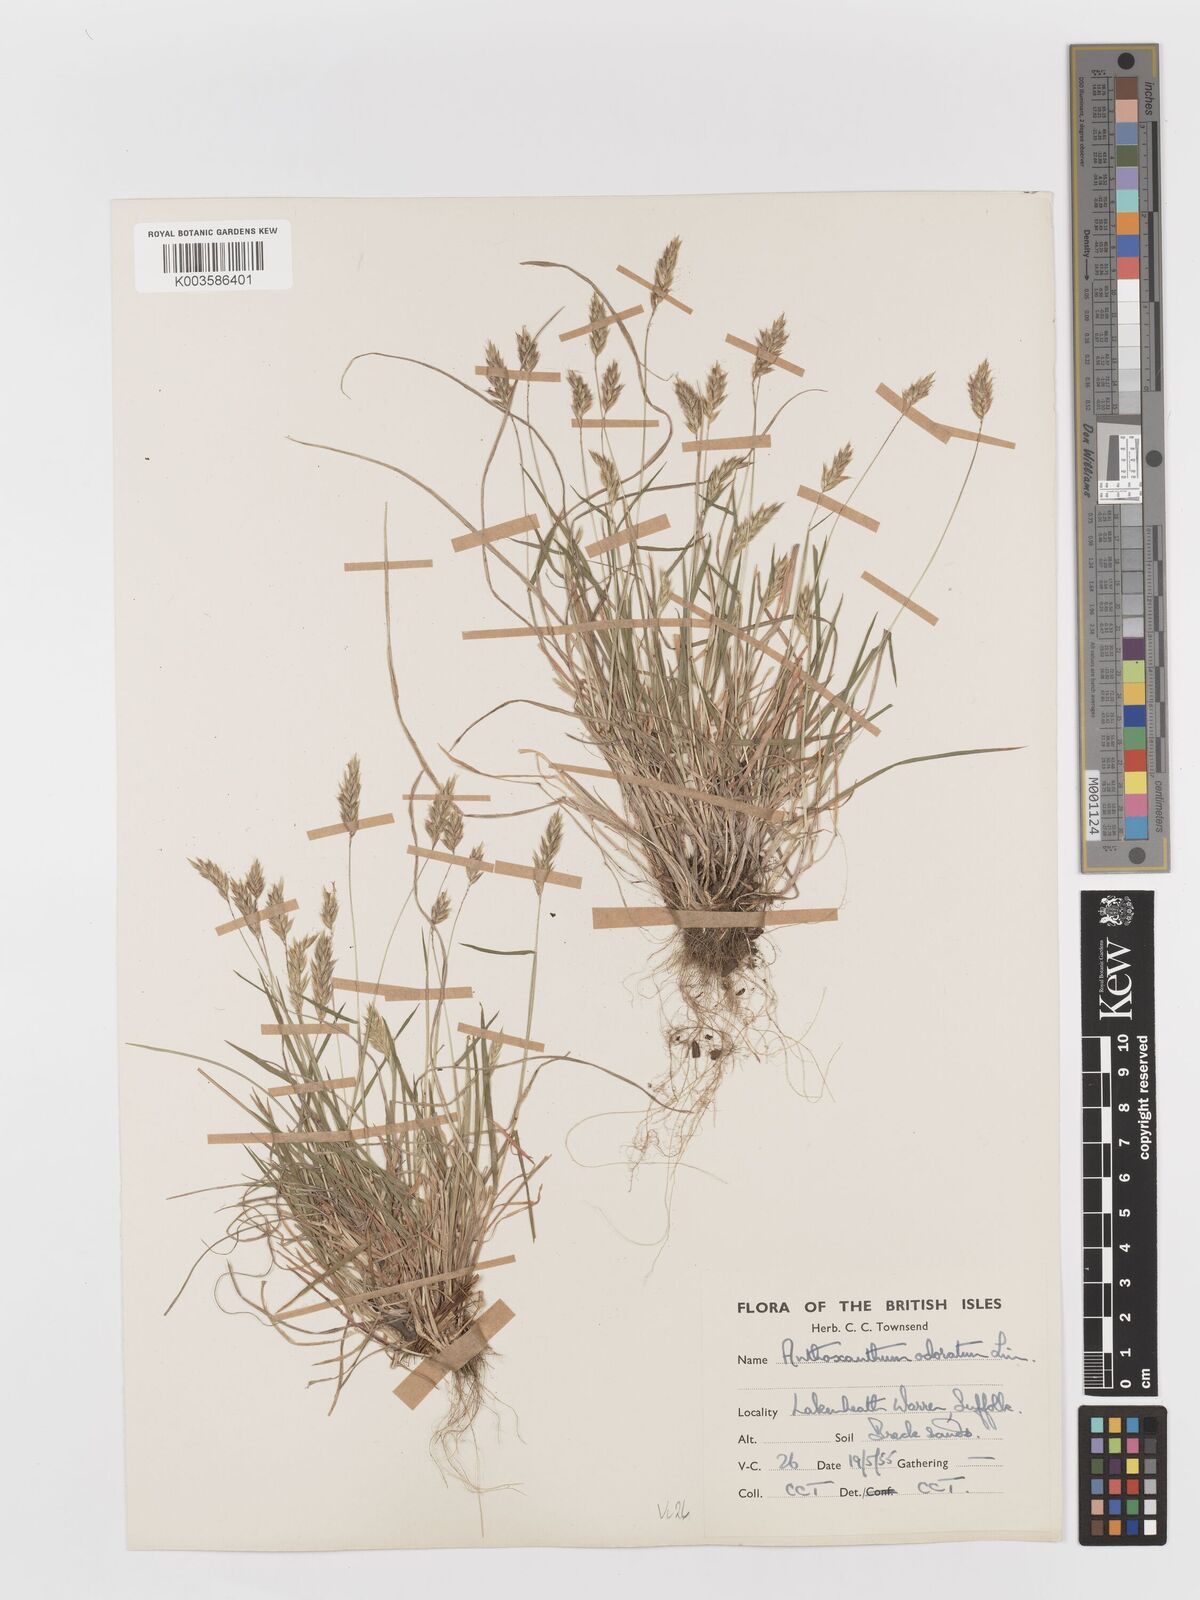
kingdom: Plantae
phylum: Tracheophyta
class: Liliopsida
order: Poales
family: Poaceae
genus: Anthoxanthum
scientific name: Anthoxanthum odoratum
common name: Sweet vernalgrass
